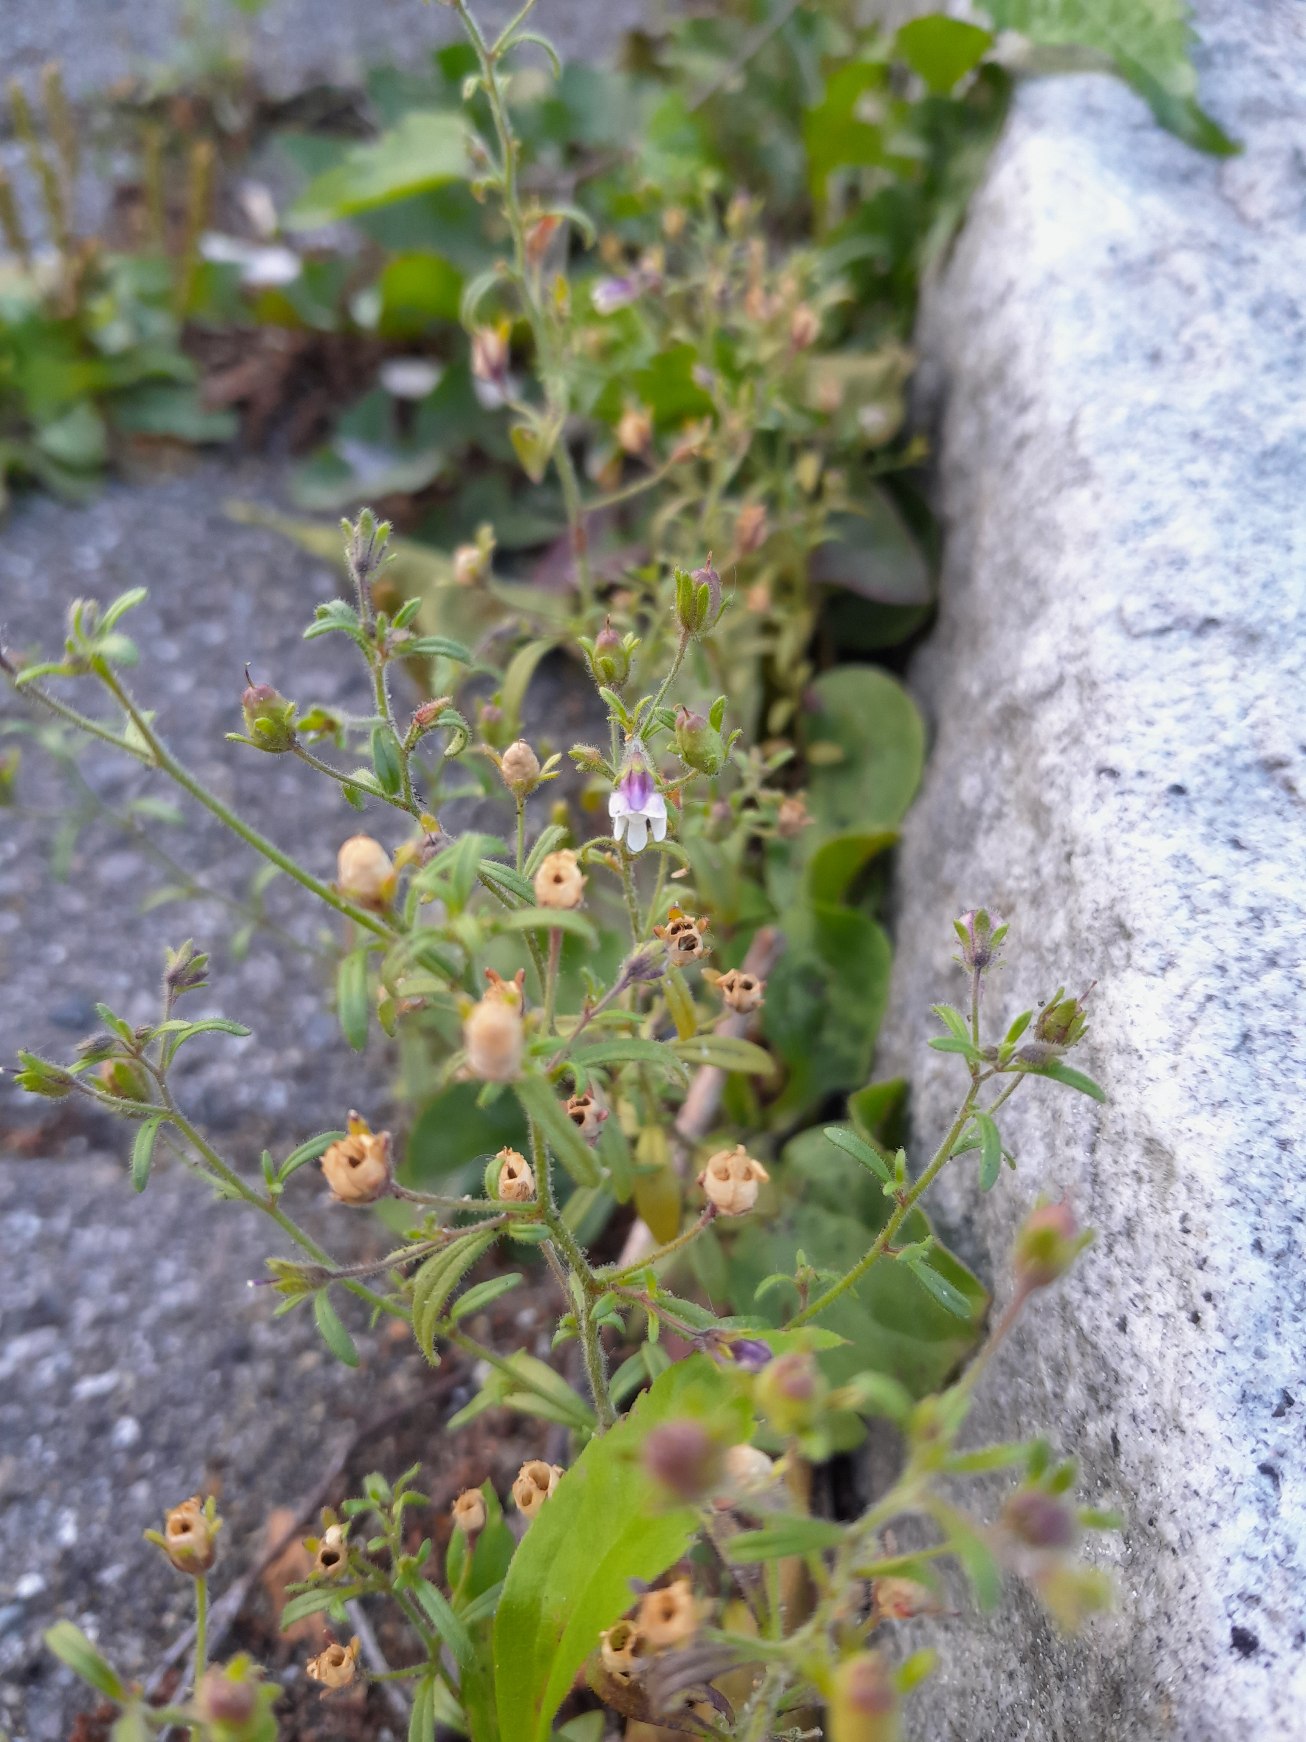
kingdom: Plantae
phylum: Tracheophyta
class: Magnoliopsida
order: Lamiales
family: Plantaginaceae
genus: Chaenorhinum
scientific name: Chaenorhinum minus
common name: Liden torskemund
